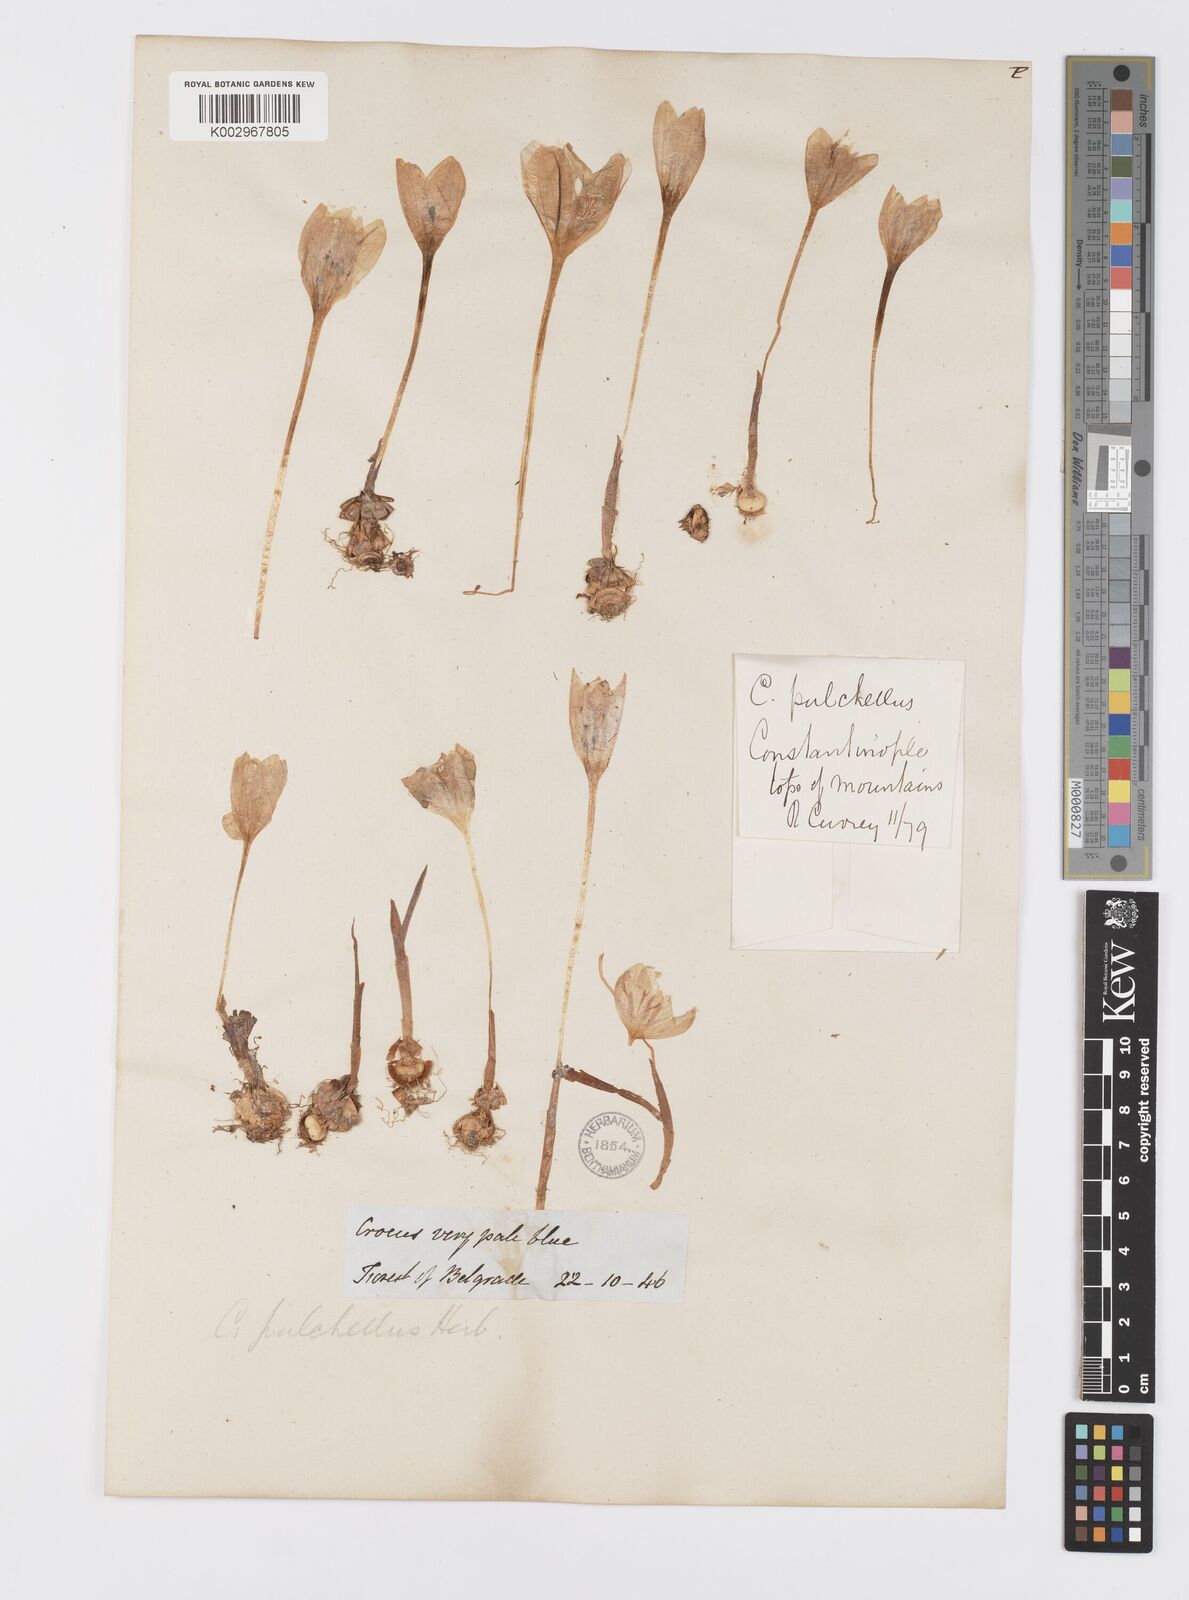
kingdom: Plantae
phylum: Tracheophyta
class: Liliopsida
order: Asparagales
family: Iridaceae
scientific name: Iridaceae
